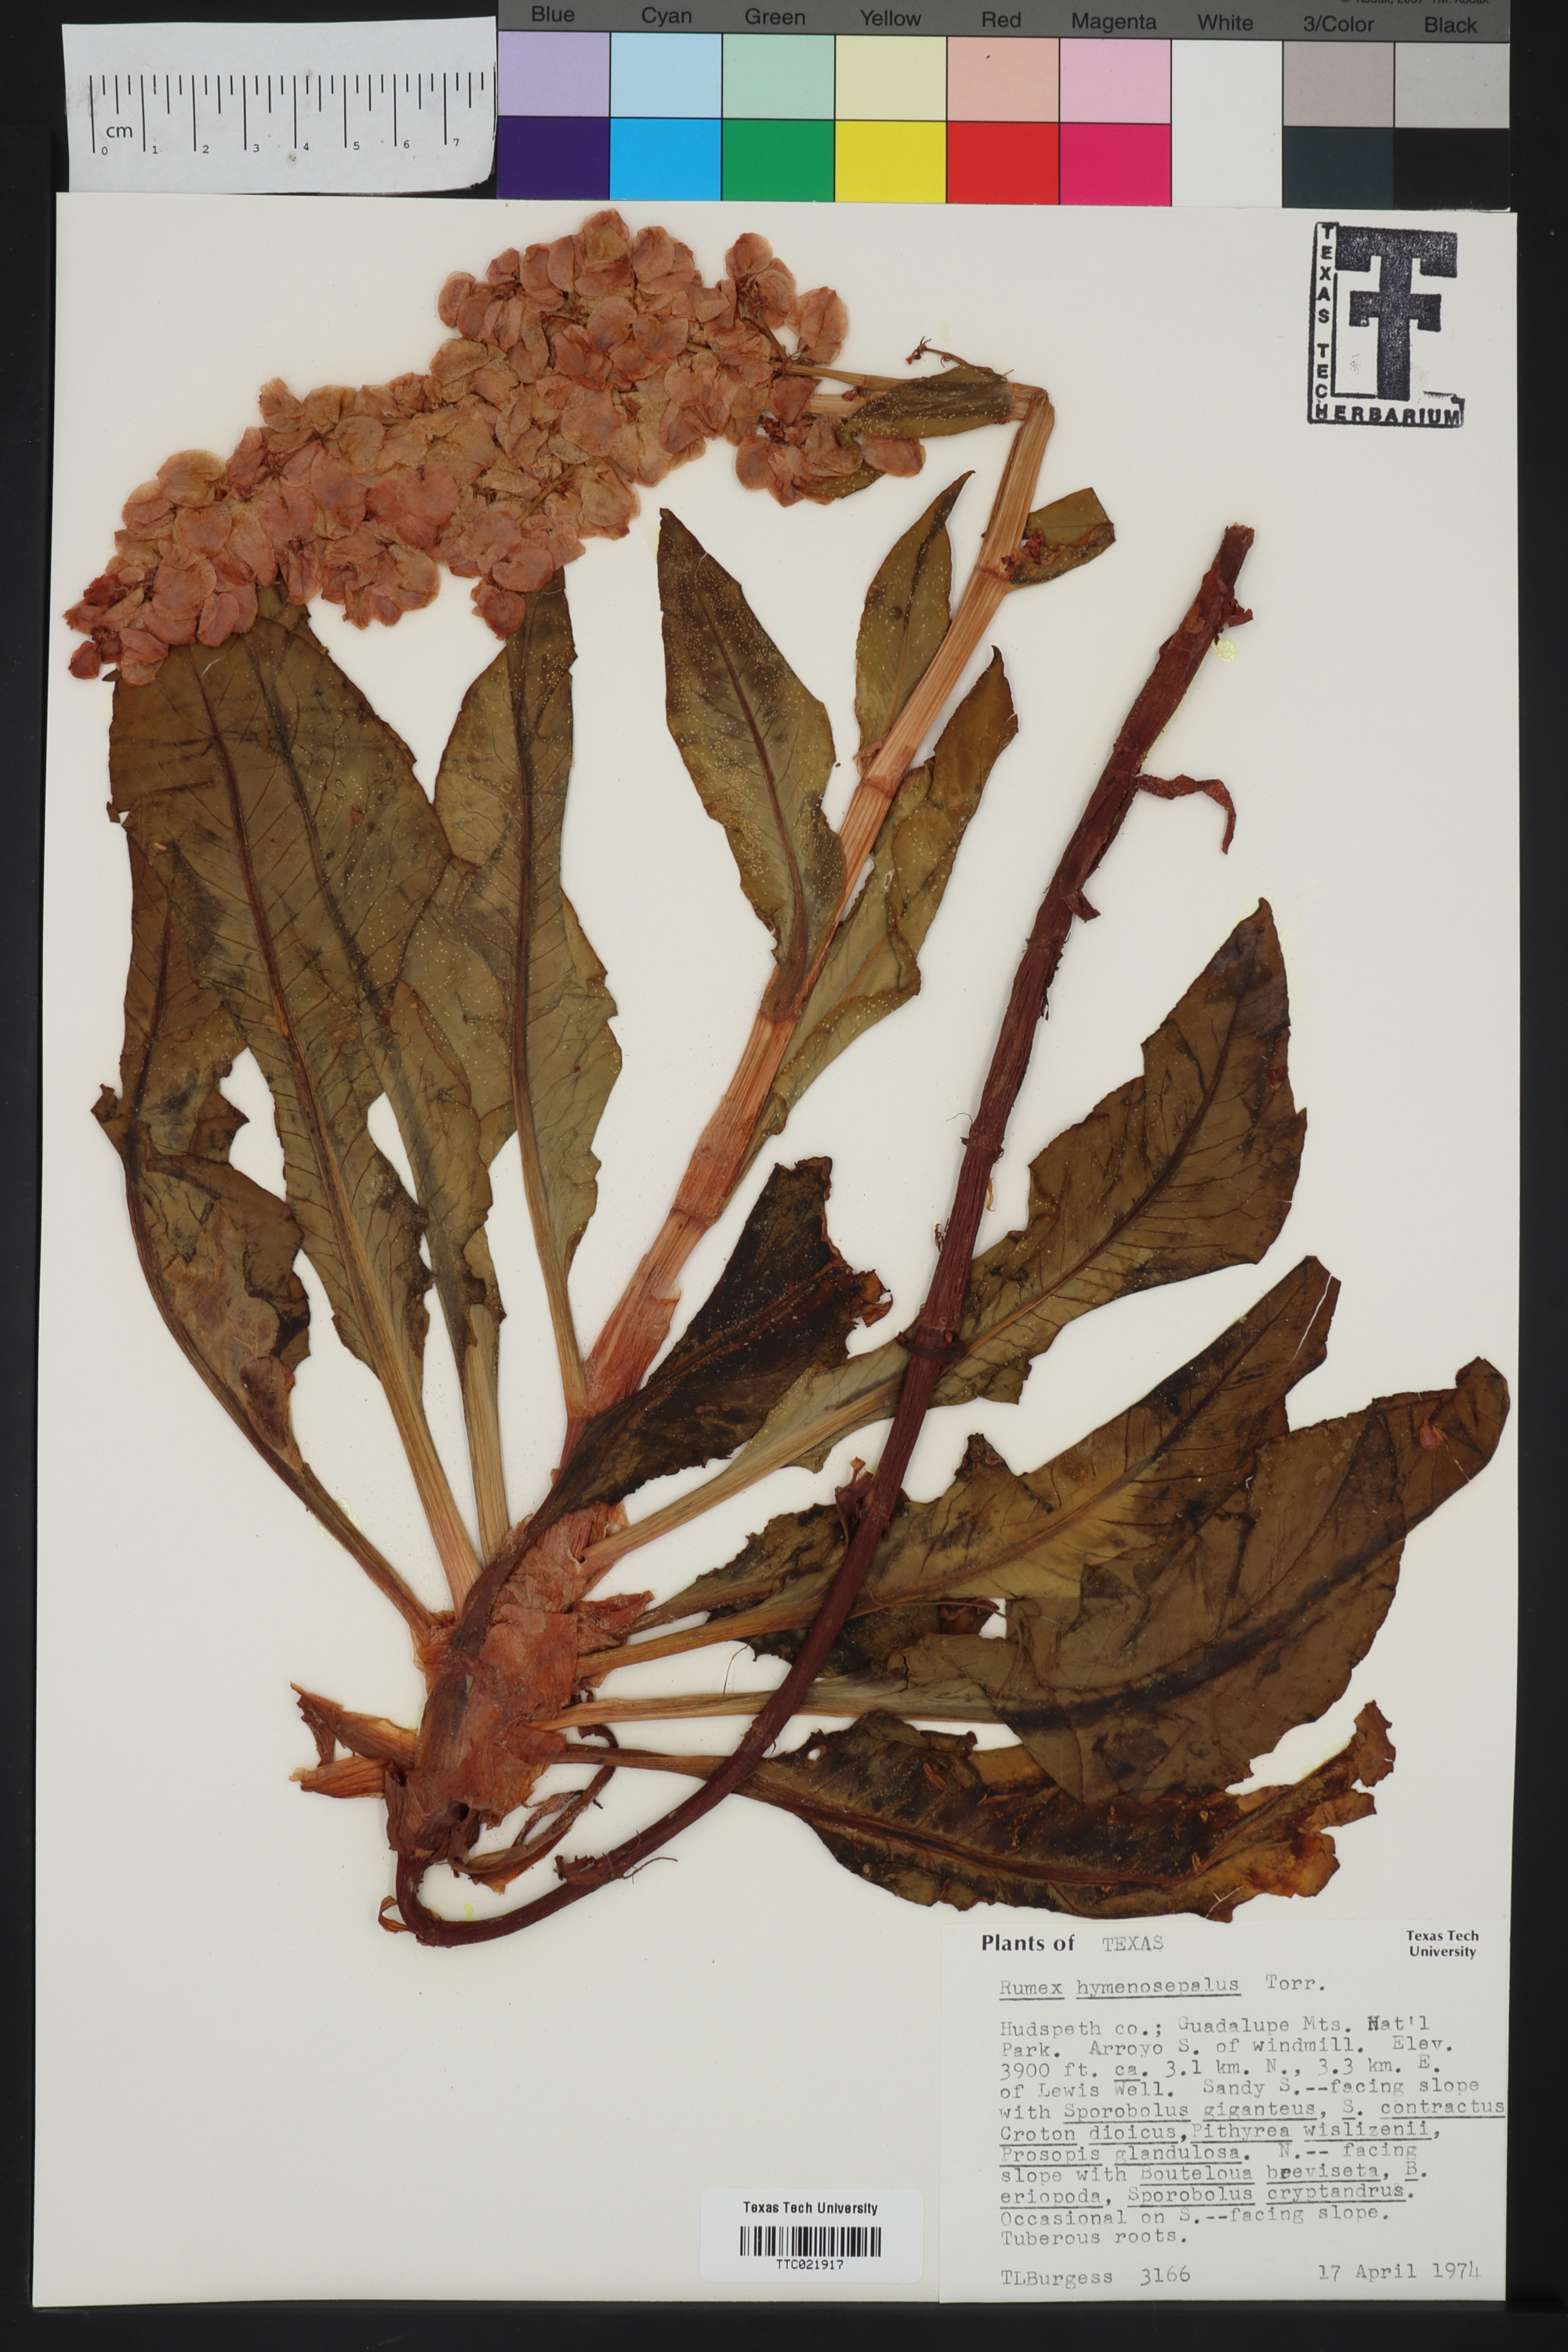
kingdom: Plantae
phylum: Tracheophyta
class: Magnoliopsida
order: Caryophyllales
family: Polygonaceae
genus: Rumex
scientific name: Rumex hymenosepalus
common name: Ganagra
